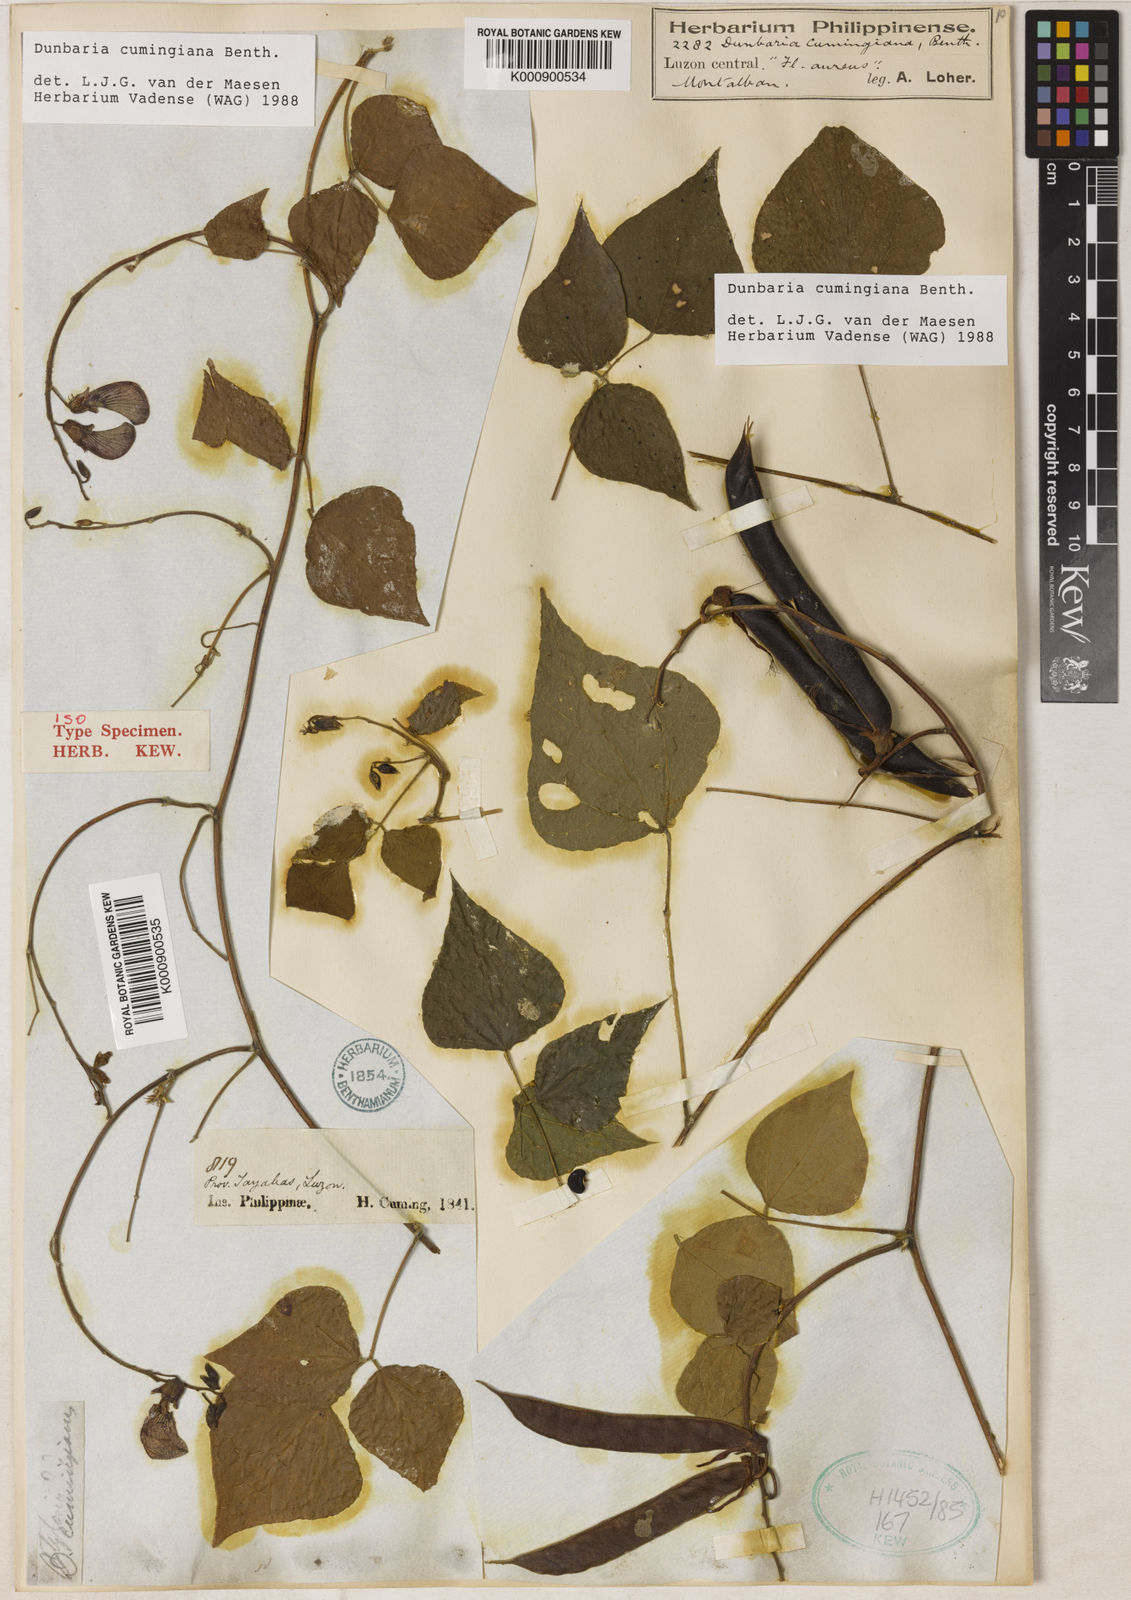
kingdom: Plantae
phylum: Tracheophyta
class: Magnoliopsida
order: Fabales
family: Fabaceae
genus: Dunbaria
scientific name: Dunbaria cumingiana
